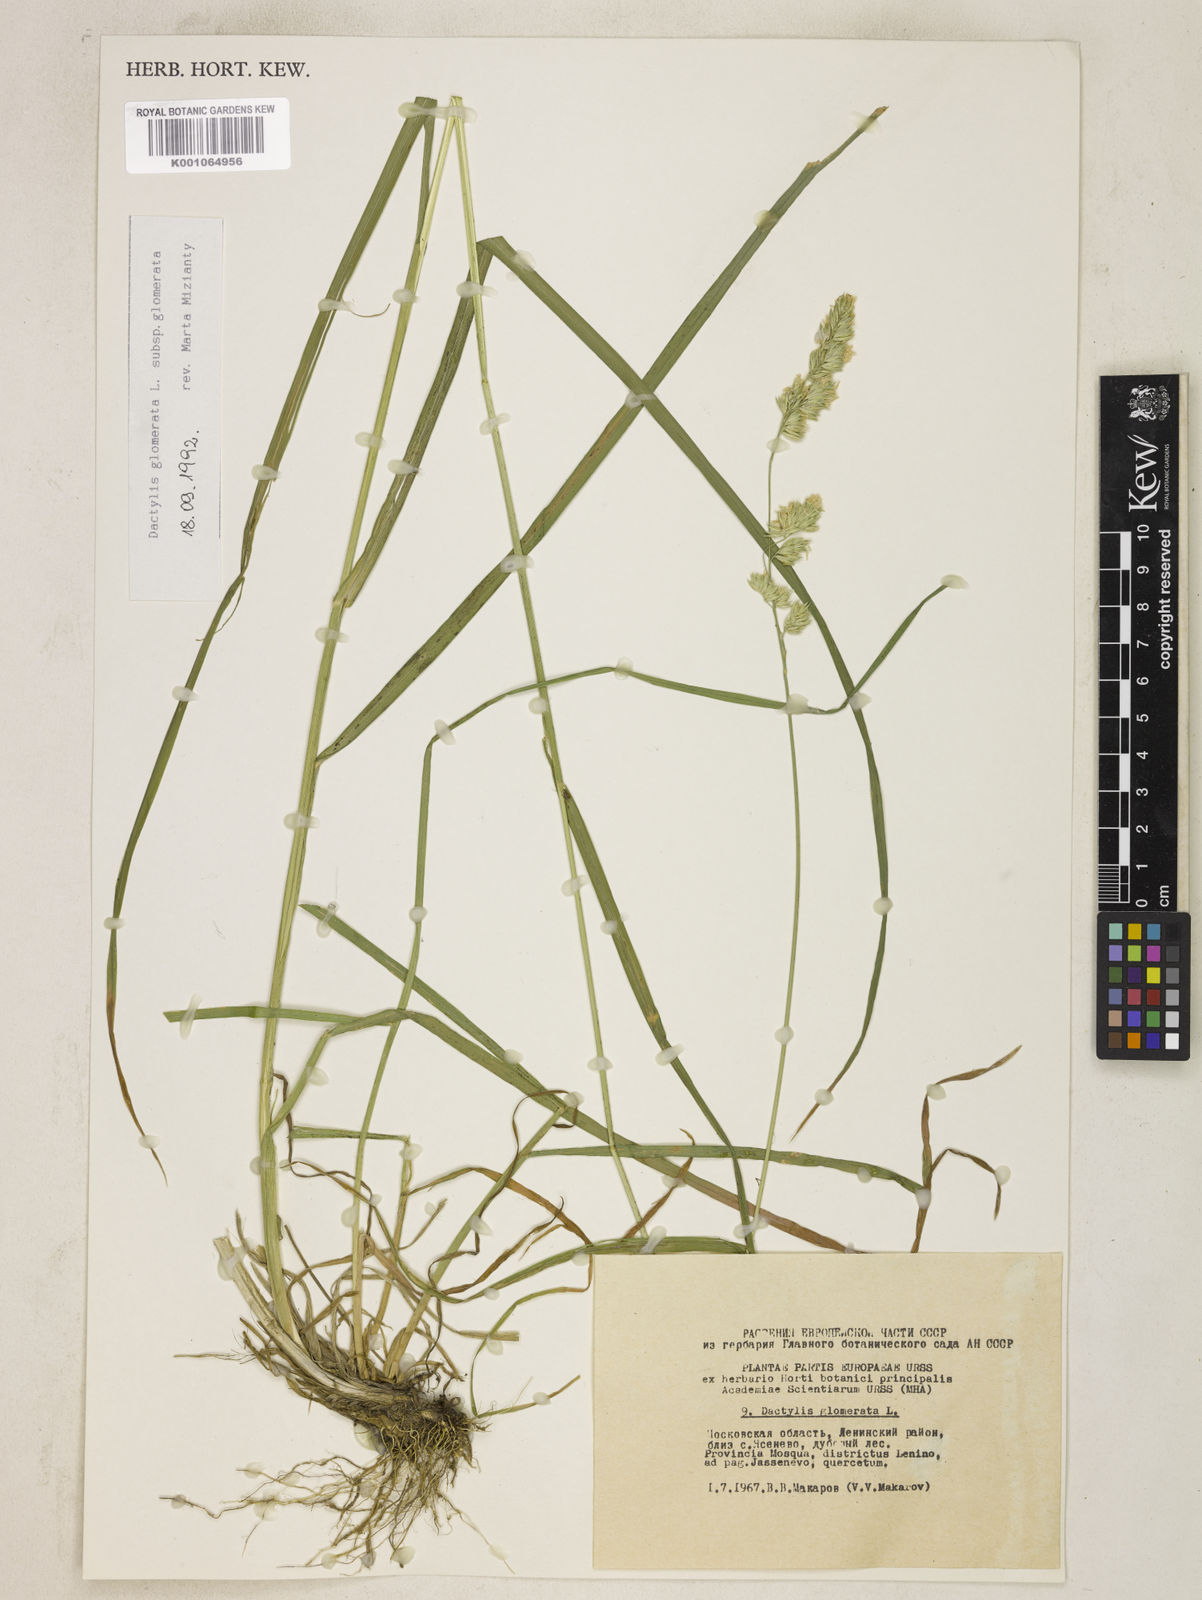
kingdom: Plantae
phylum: Tracheophyta
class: Liliopsida
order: Poales
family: Poaceae
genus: Dactylis
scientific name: Dactylis glomerata
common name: Orchardgrass
